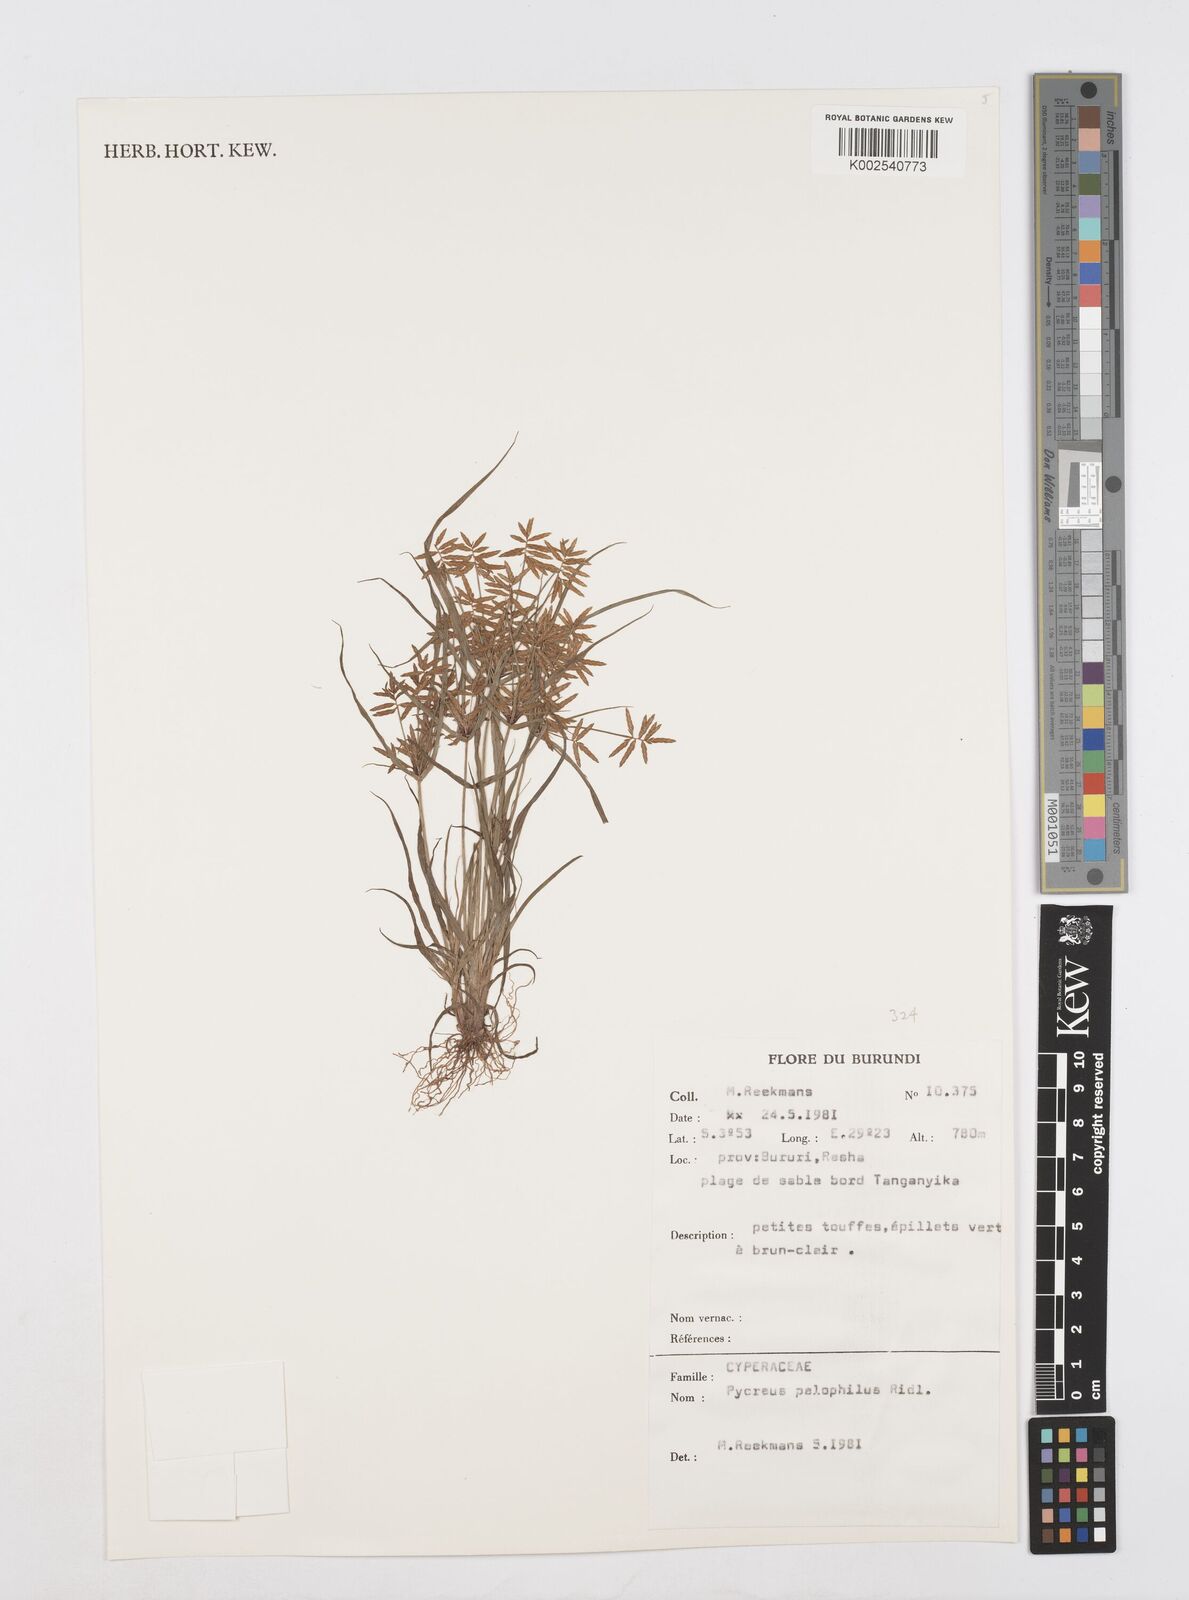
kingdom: Plantae
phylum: Tracheophyta
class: Liliopsida
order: Poales
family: Cyperaceae
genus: Cyperus
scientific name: Cyperus pelophilus
